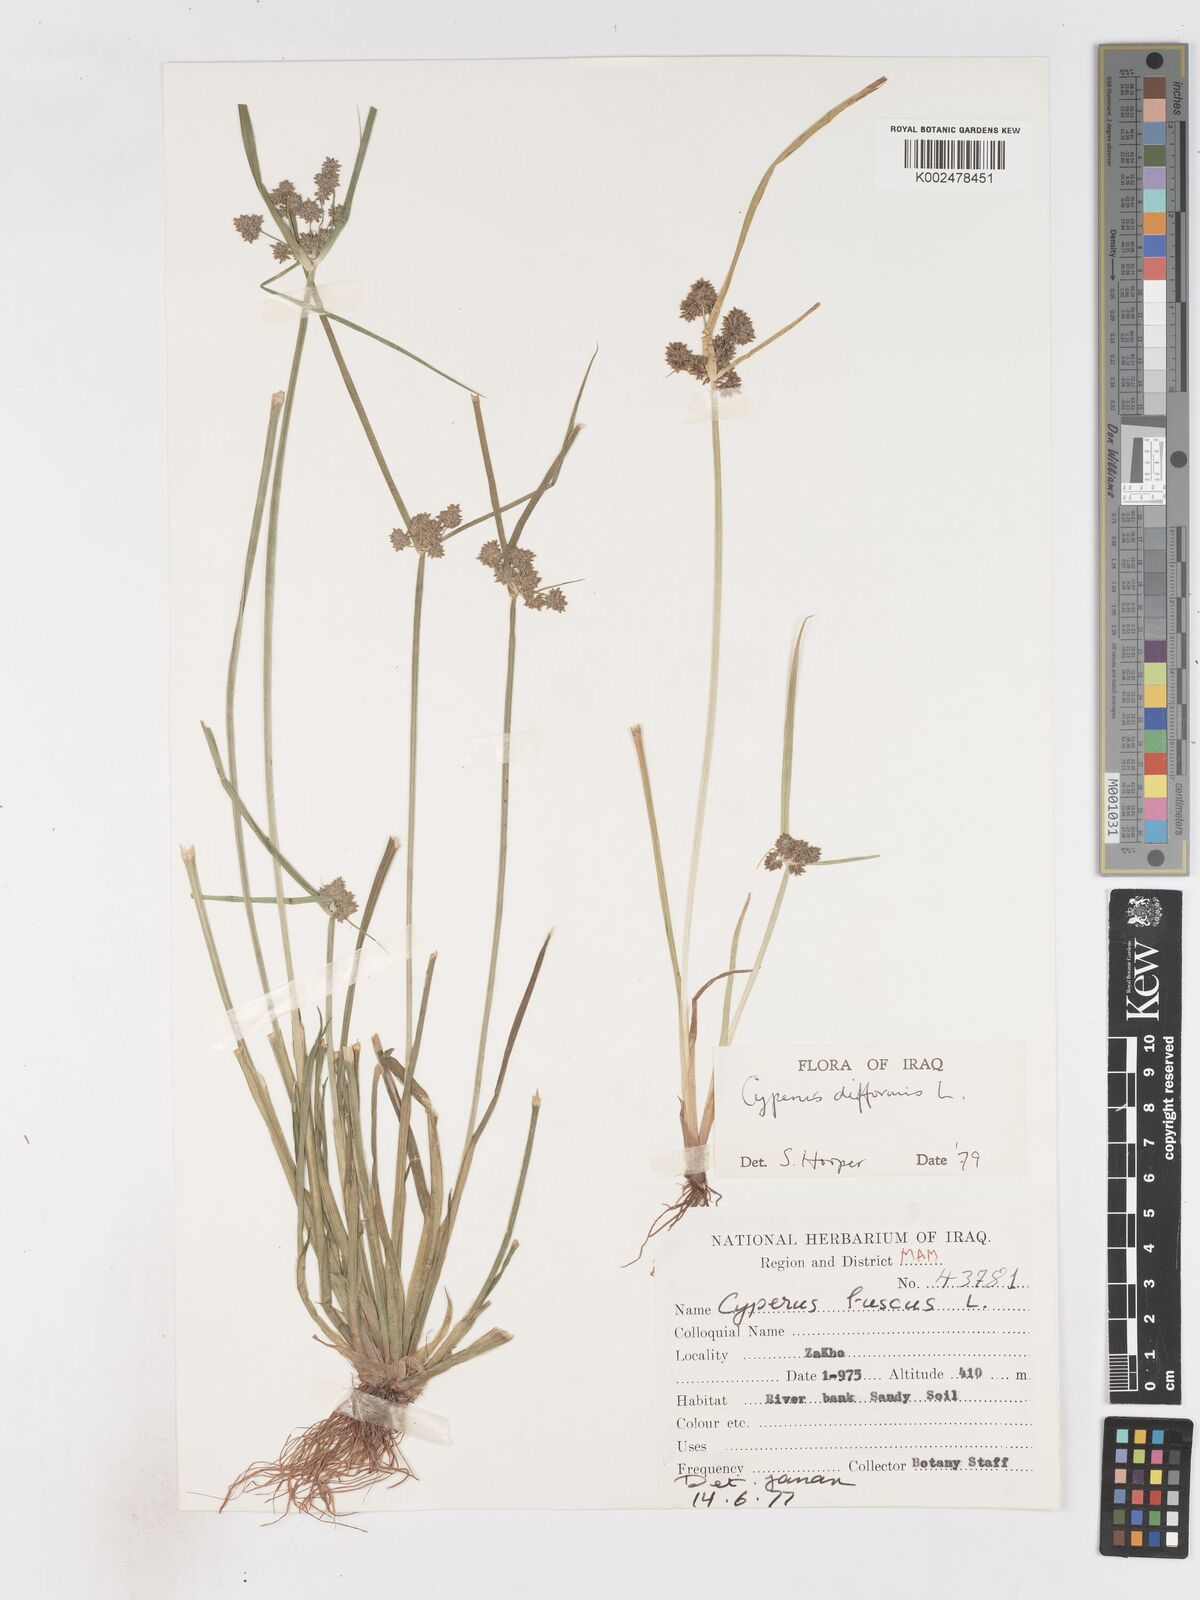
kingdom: Plantae
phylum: Tracheophyta
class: Liliopsida
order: Poales
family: Cyperaceae
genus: Cyperus
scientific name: Cyperus difformis
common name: Variable flatsedge
